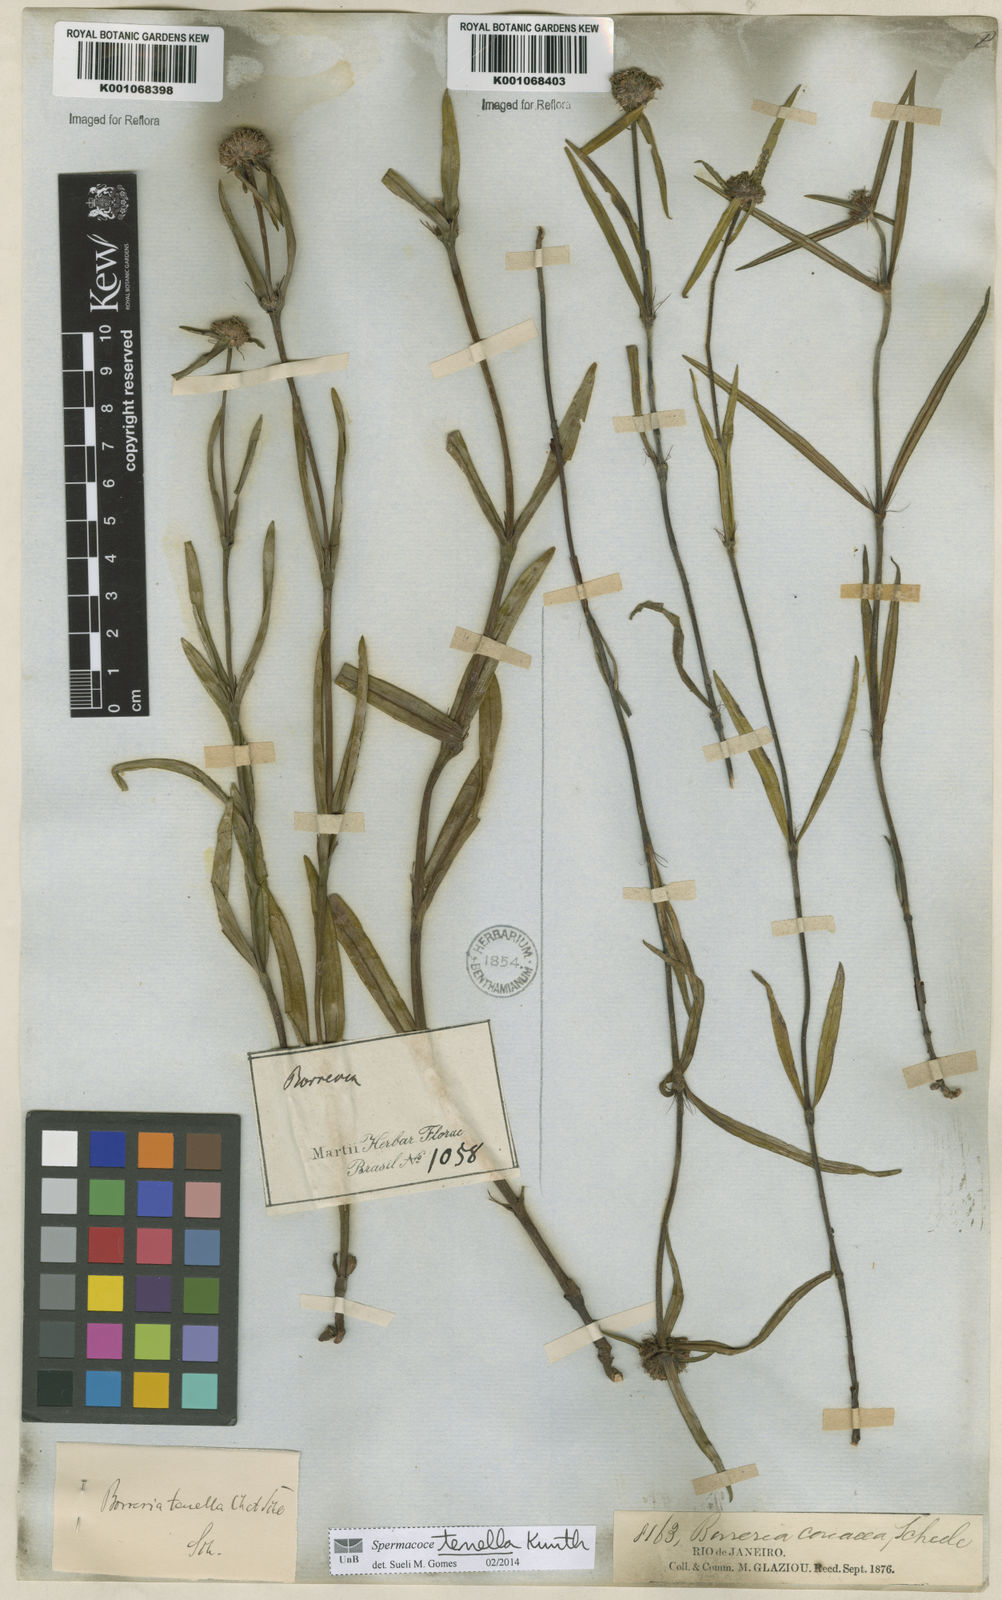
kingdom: Plantae
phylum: Tracheophyta
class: Magnoliopsida
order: Gentianales
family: Rubiaceae
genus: Spermacoce
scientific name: Spermacoce orinocensis
